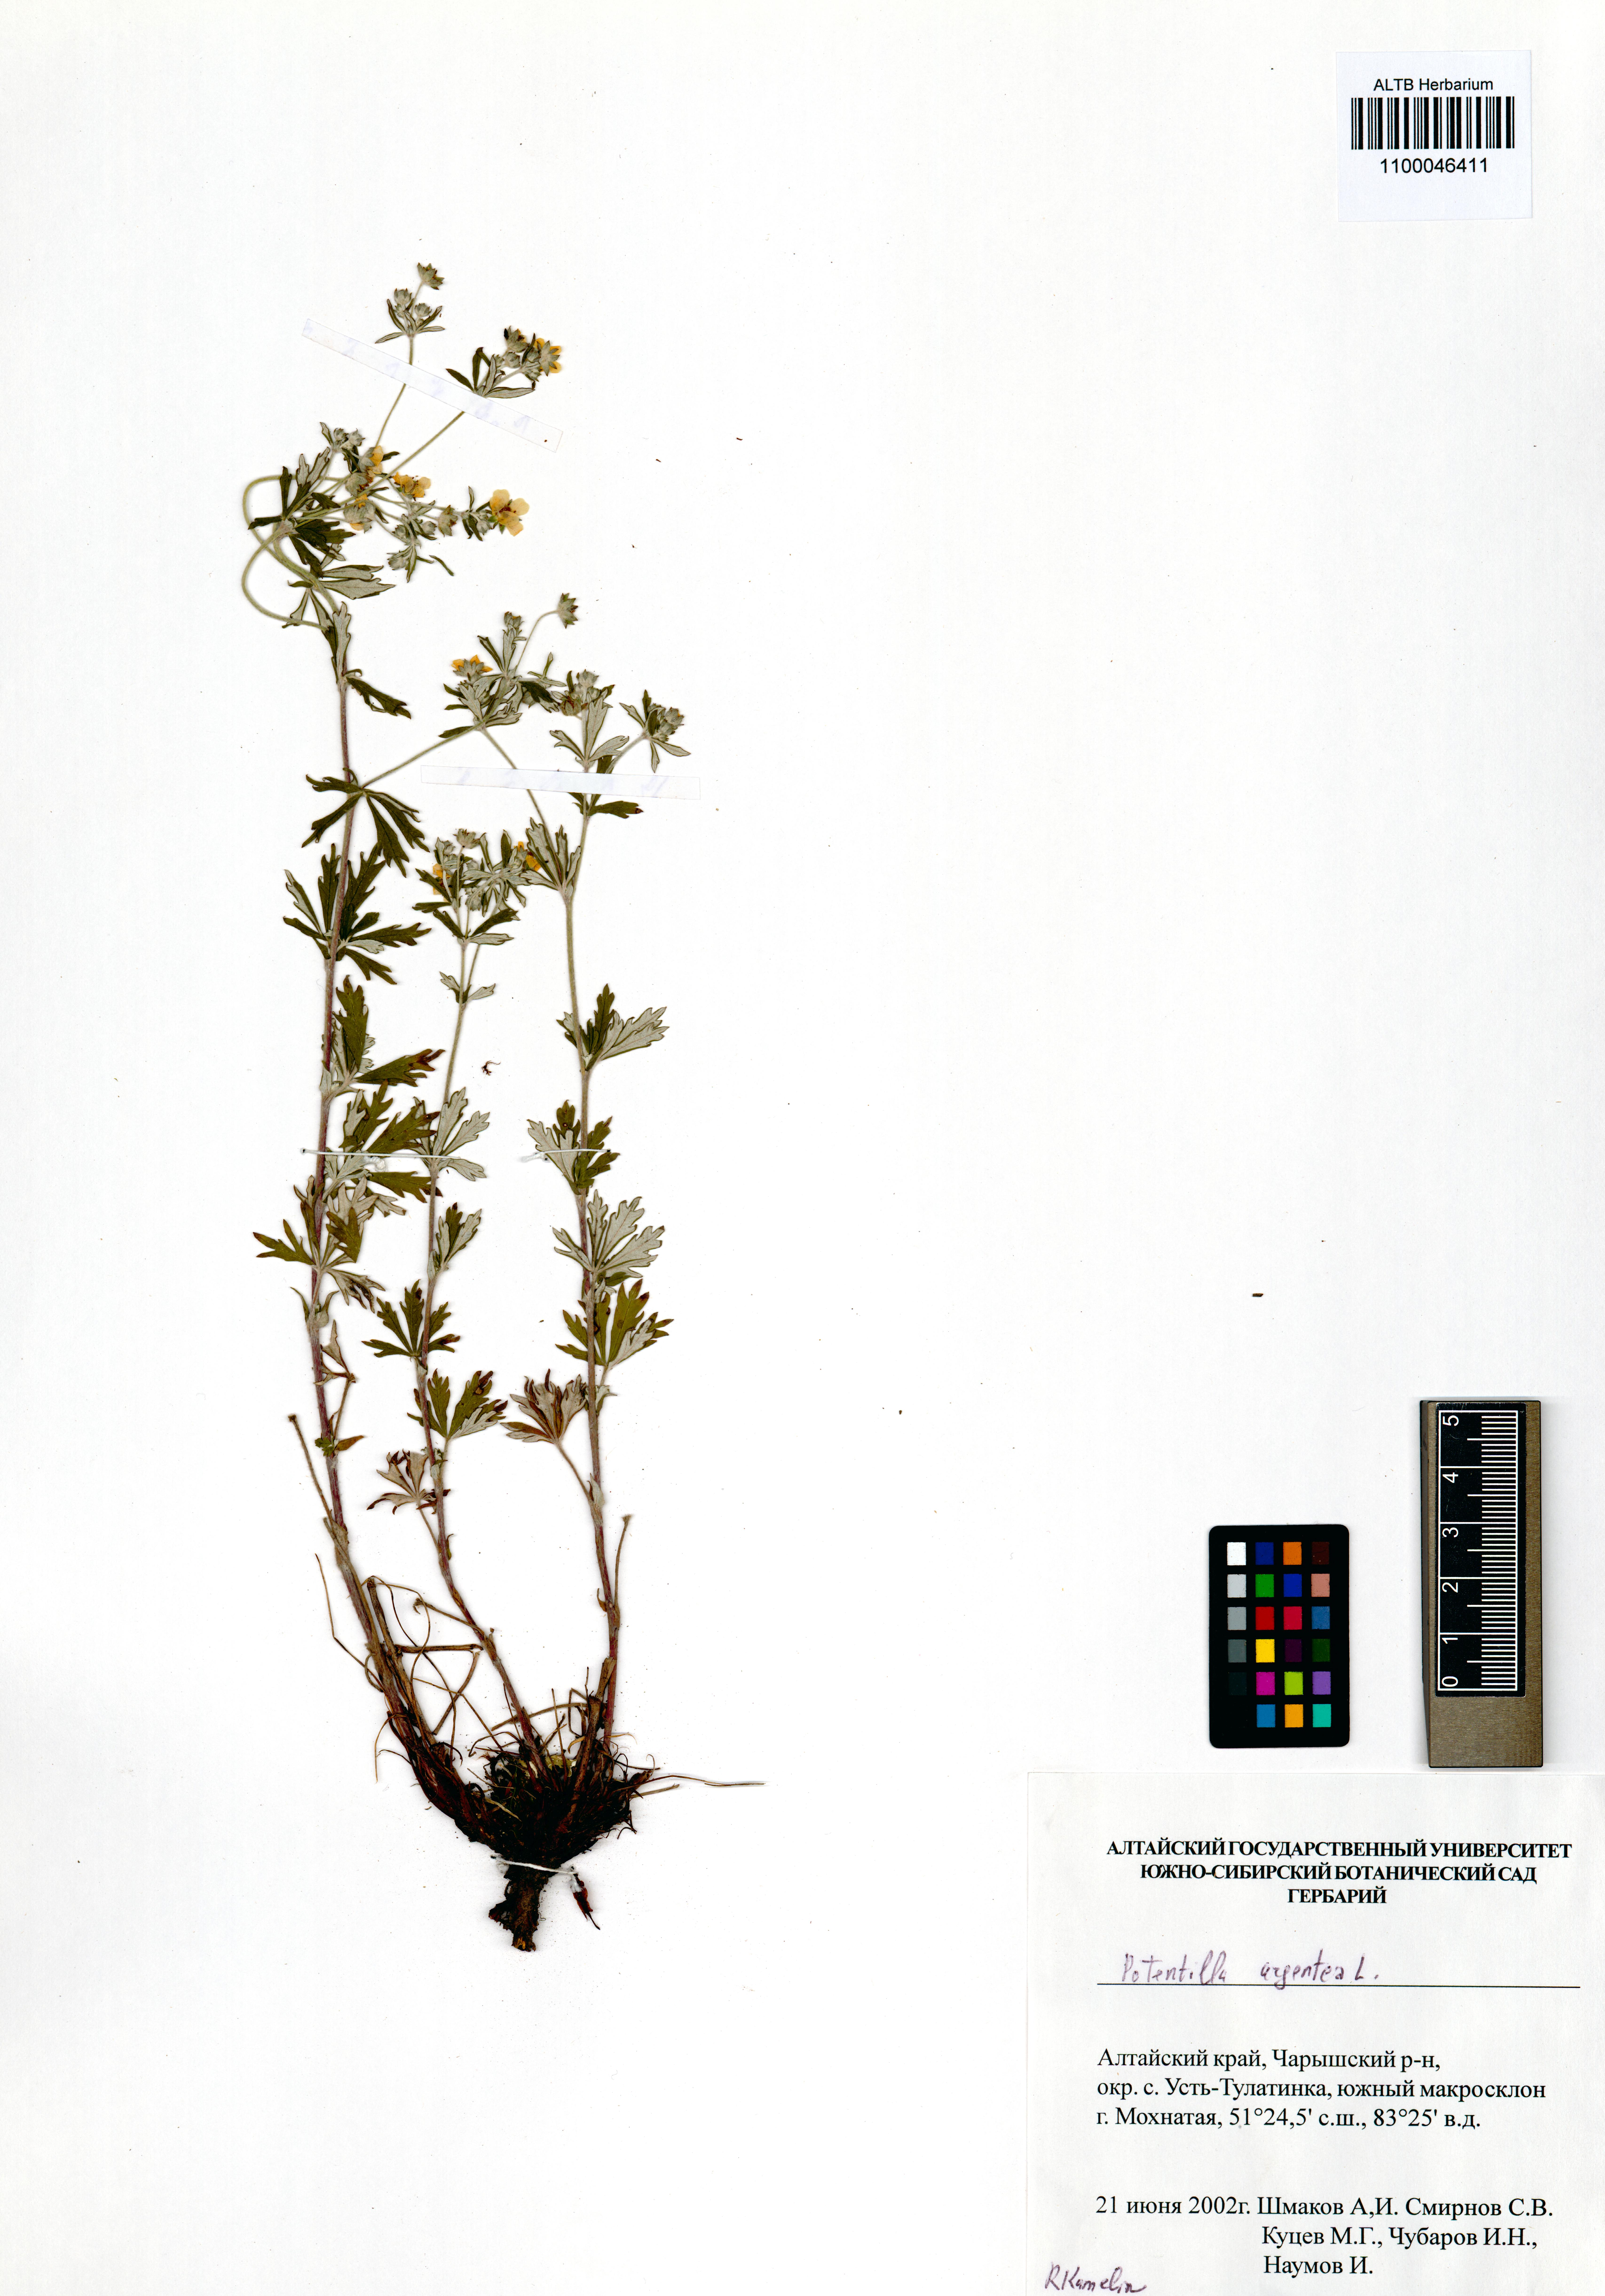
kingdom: Plantae
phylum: Tracheophyta
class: Magnoliopsida
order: Rosales
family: Rosaceae
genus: Potentilla
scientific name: Potentilla argentea
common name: Hoary cinquefoil
